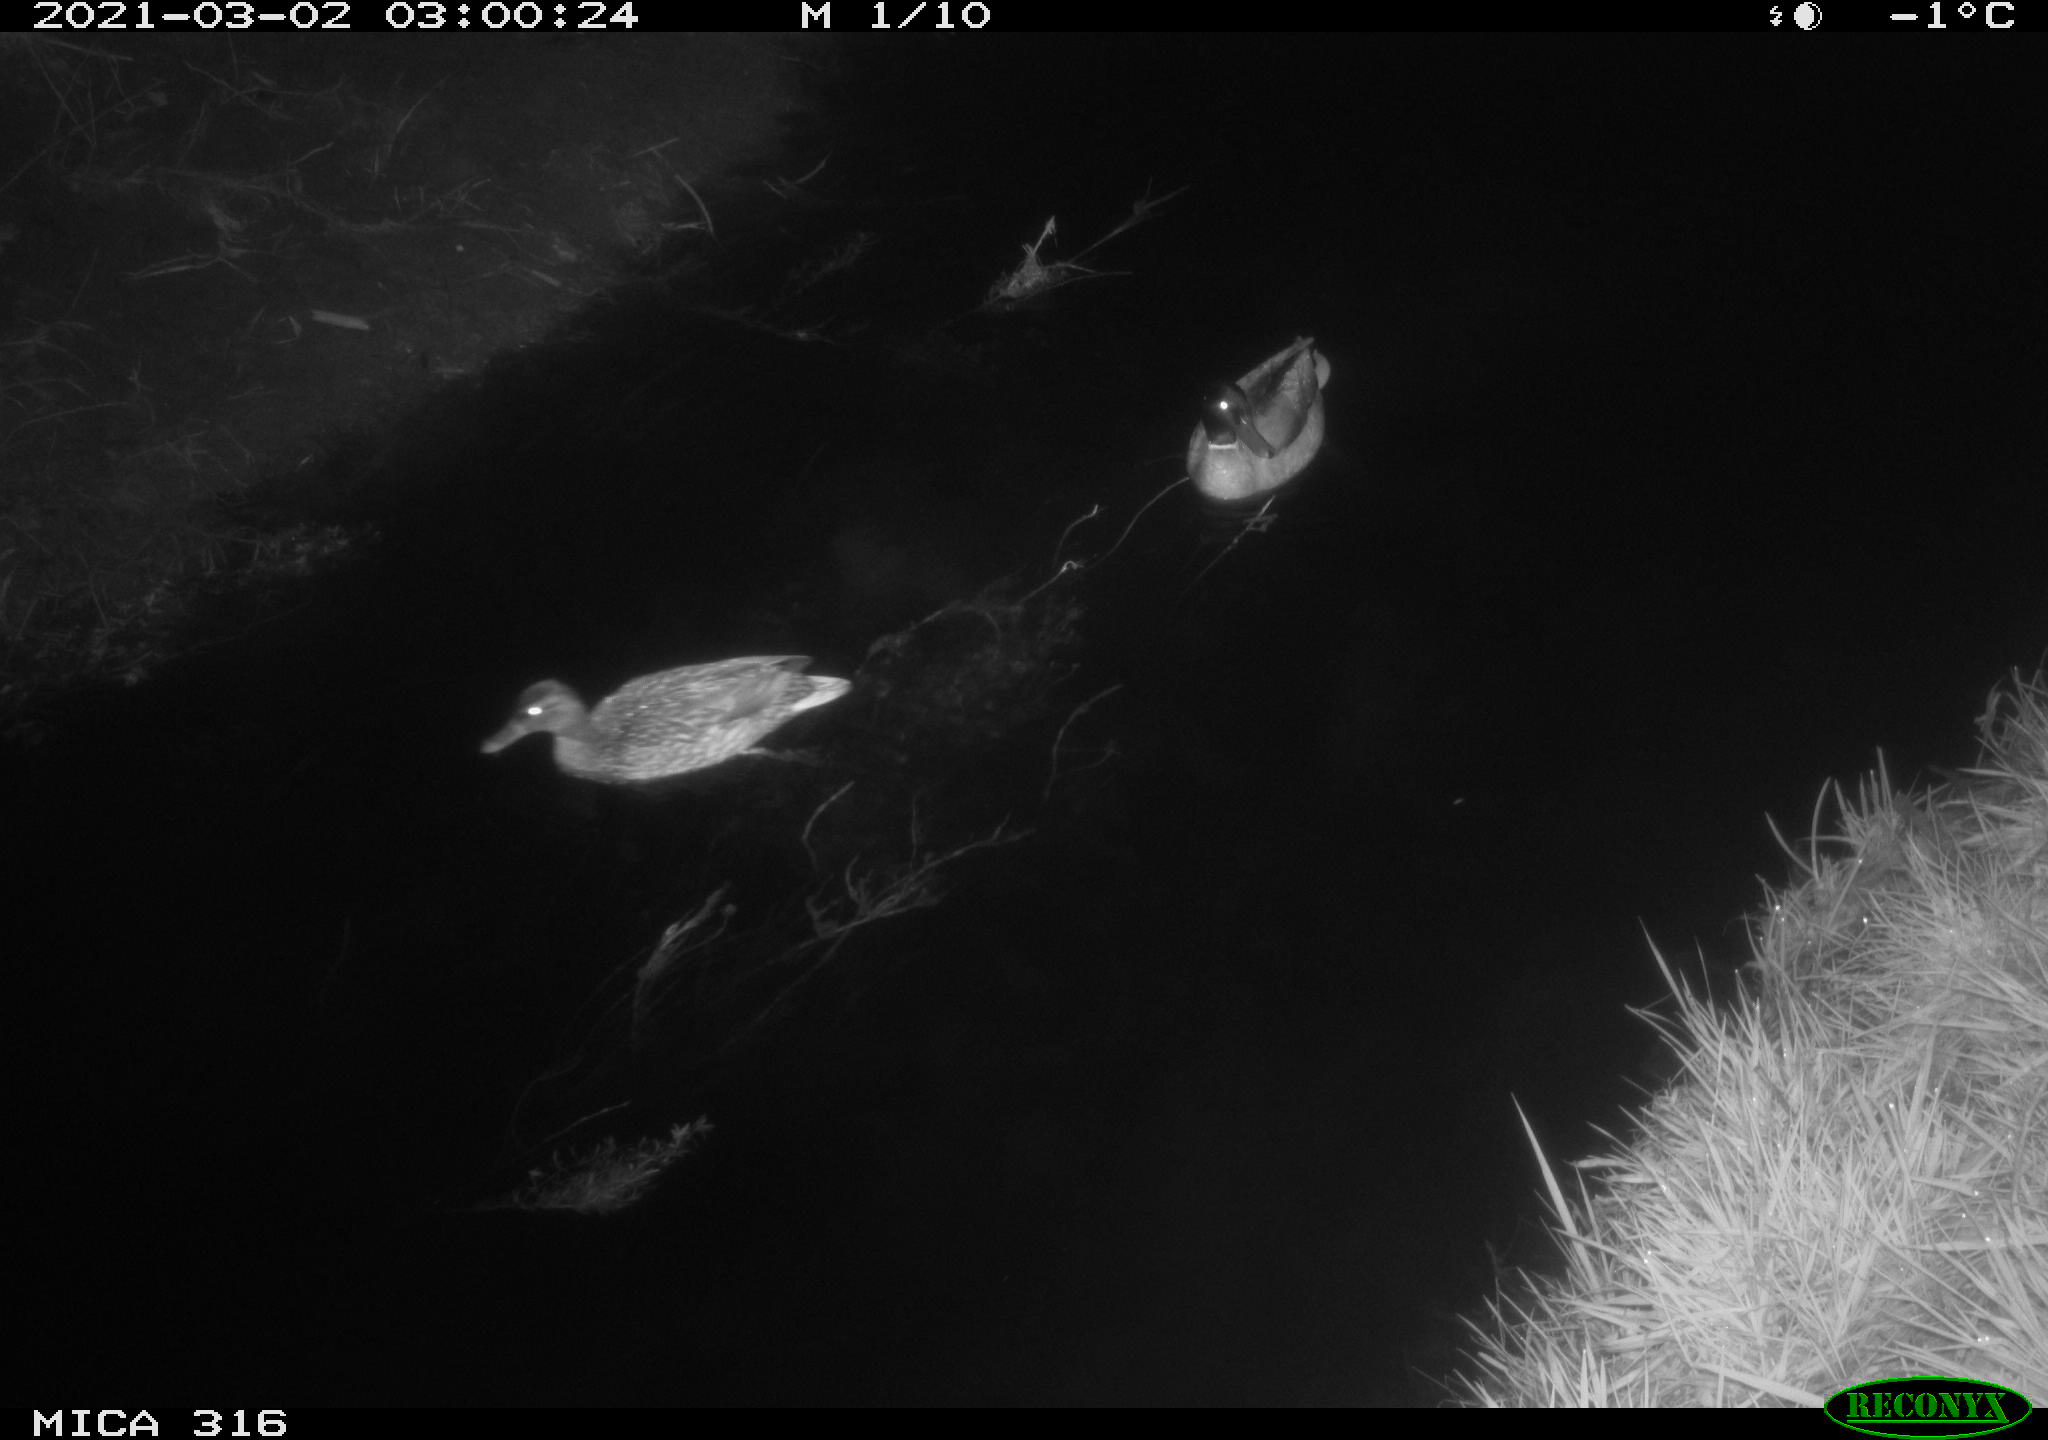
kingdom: Animalia
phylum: Chordata
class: Aves
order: Anseriformes
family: Anatidae
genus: Anas
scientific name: Anas platyrhynchos
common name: Mallard
